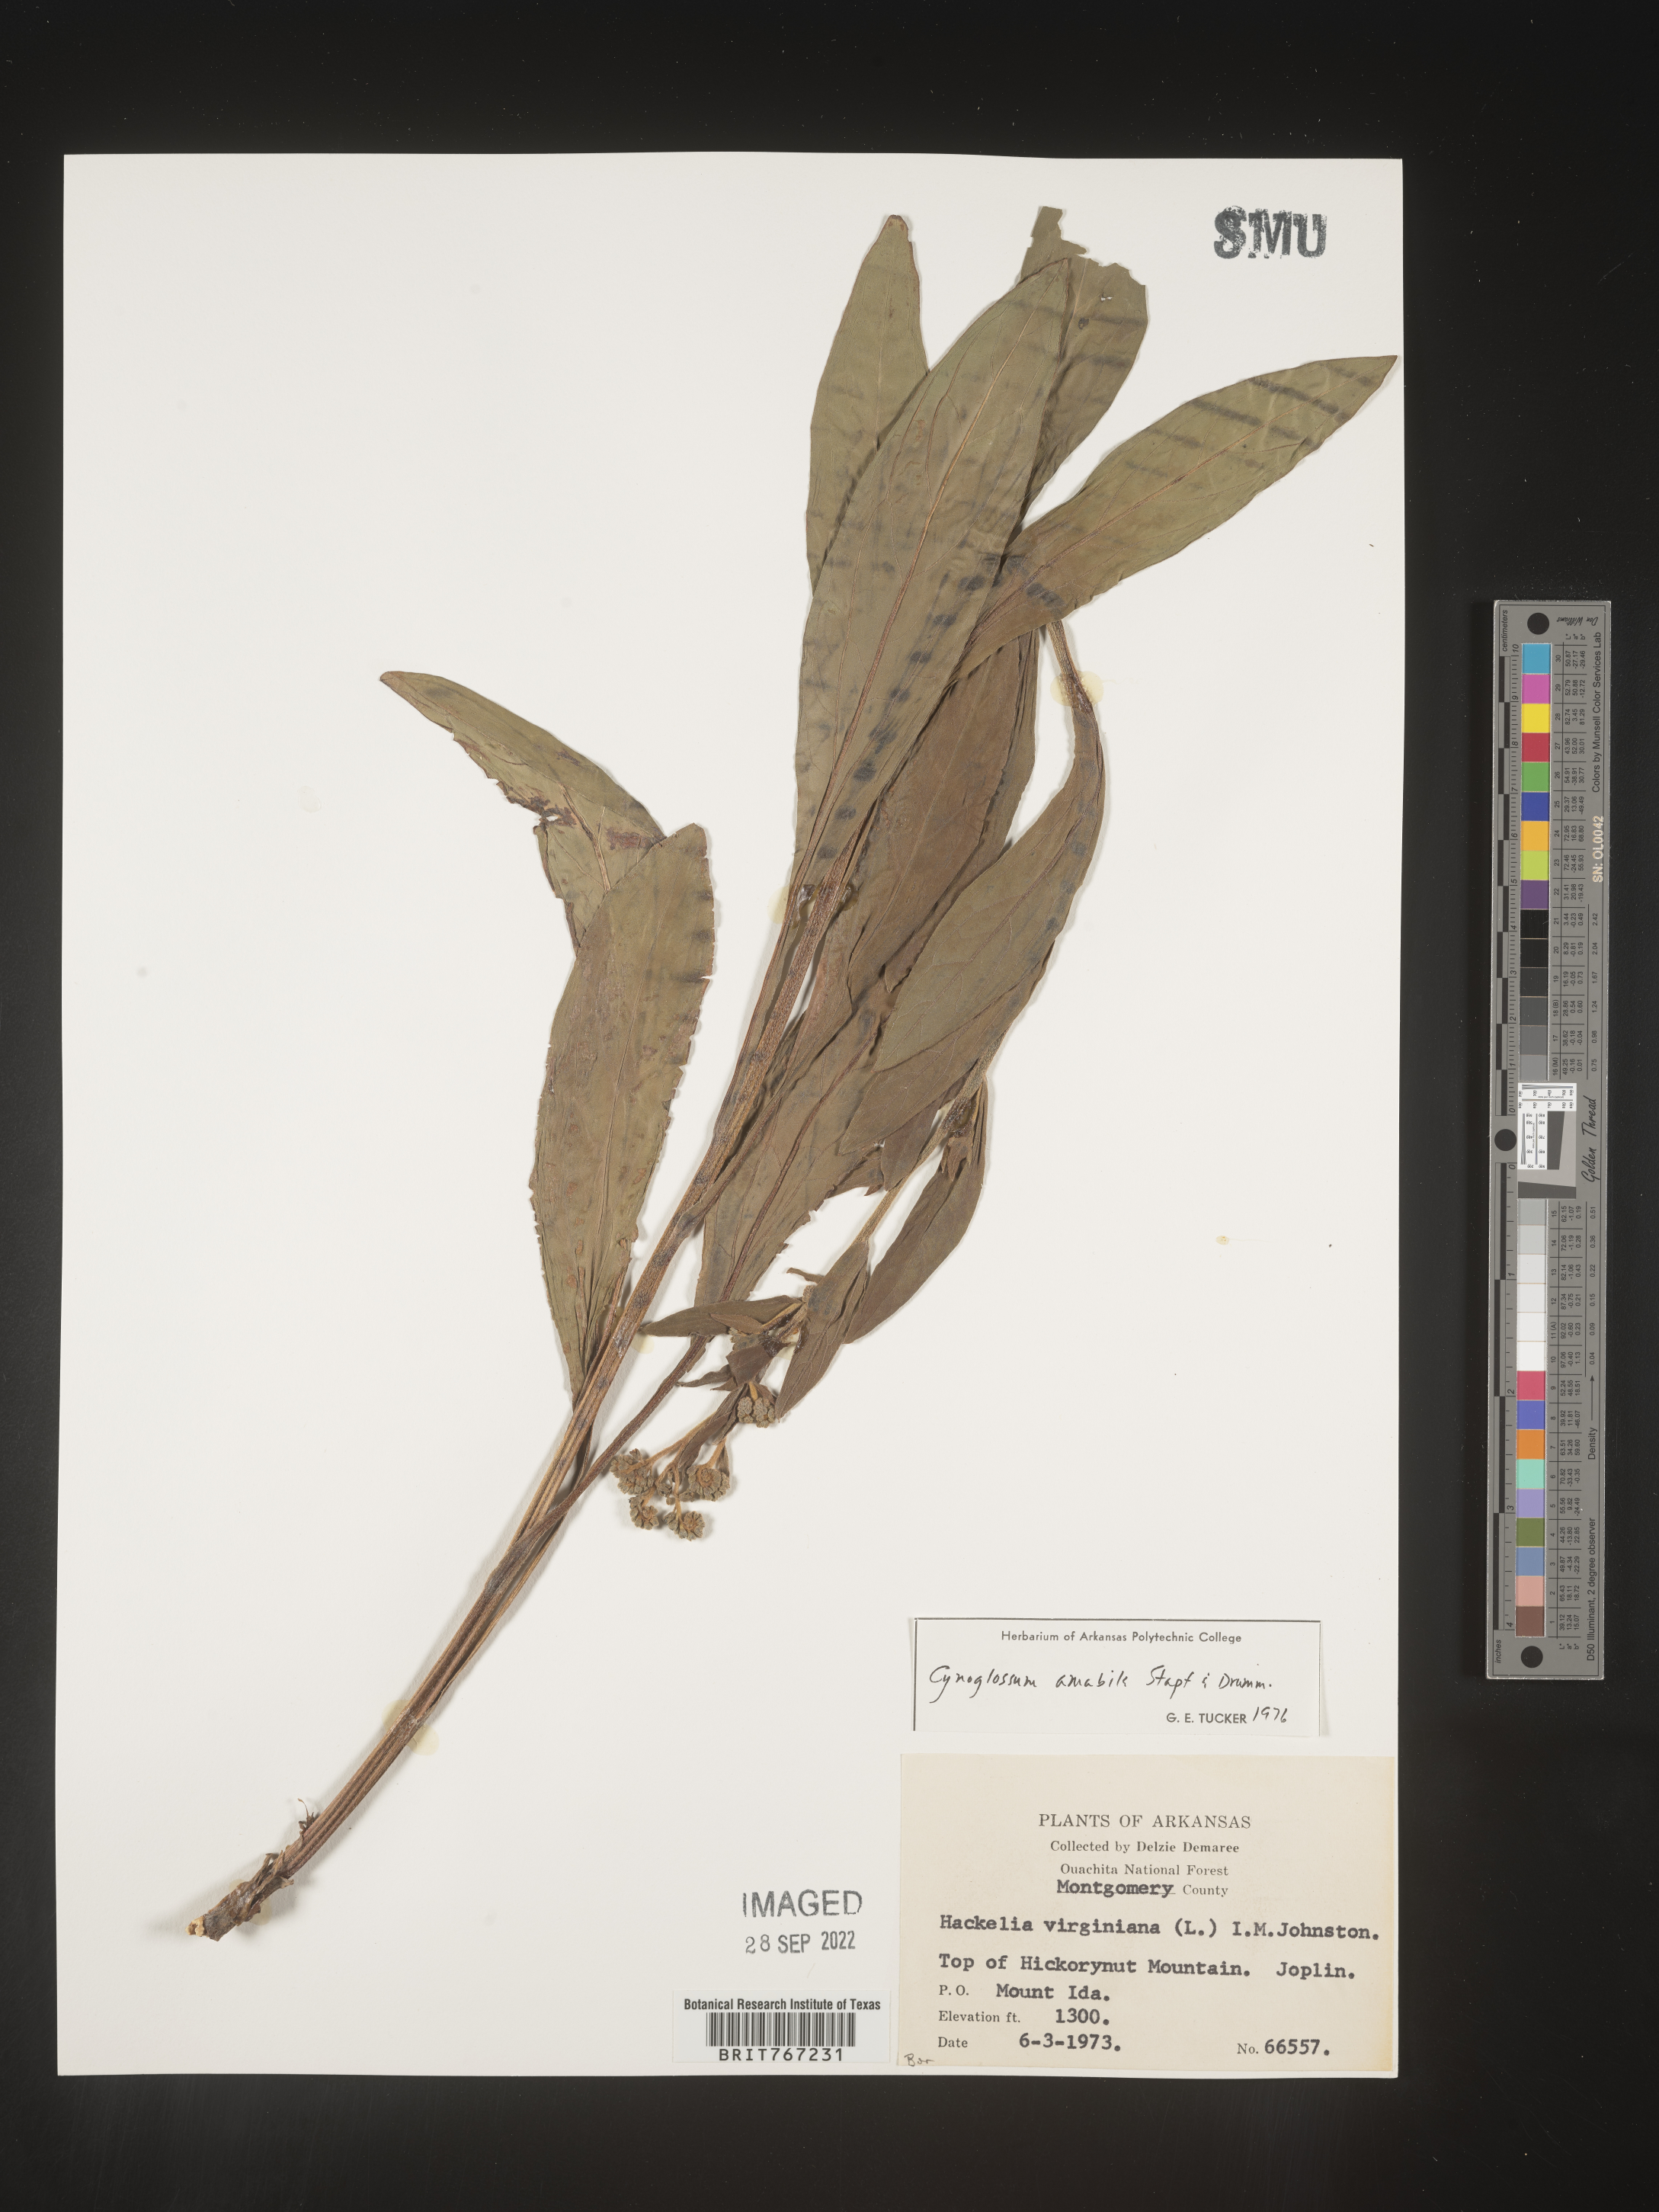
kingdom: Plantae
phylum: Tracheophyta
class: Magnoliopsida
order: Boraginales
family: Boraginaceae
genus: Cynoglossum
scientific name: Cynoglossum
